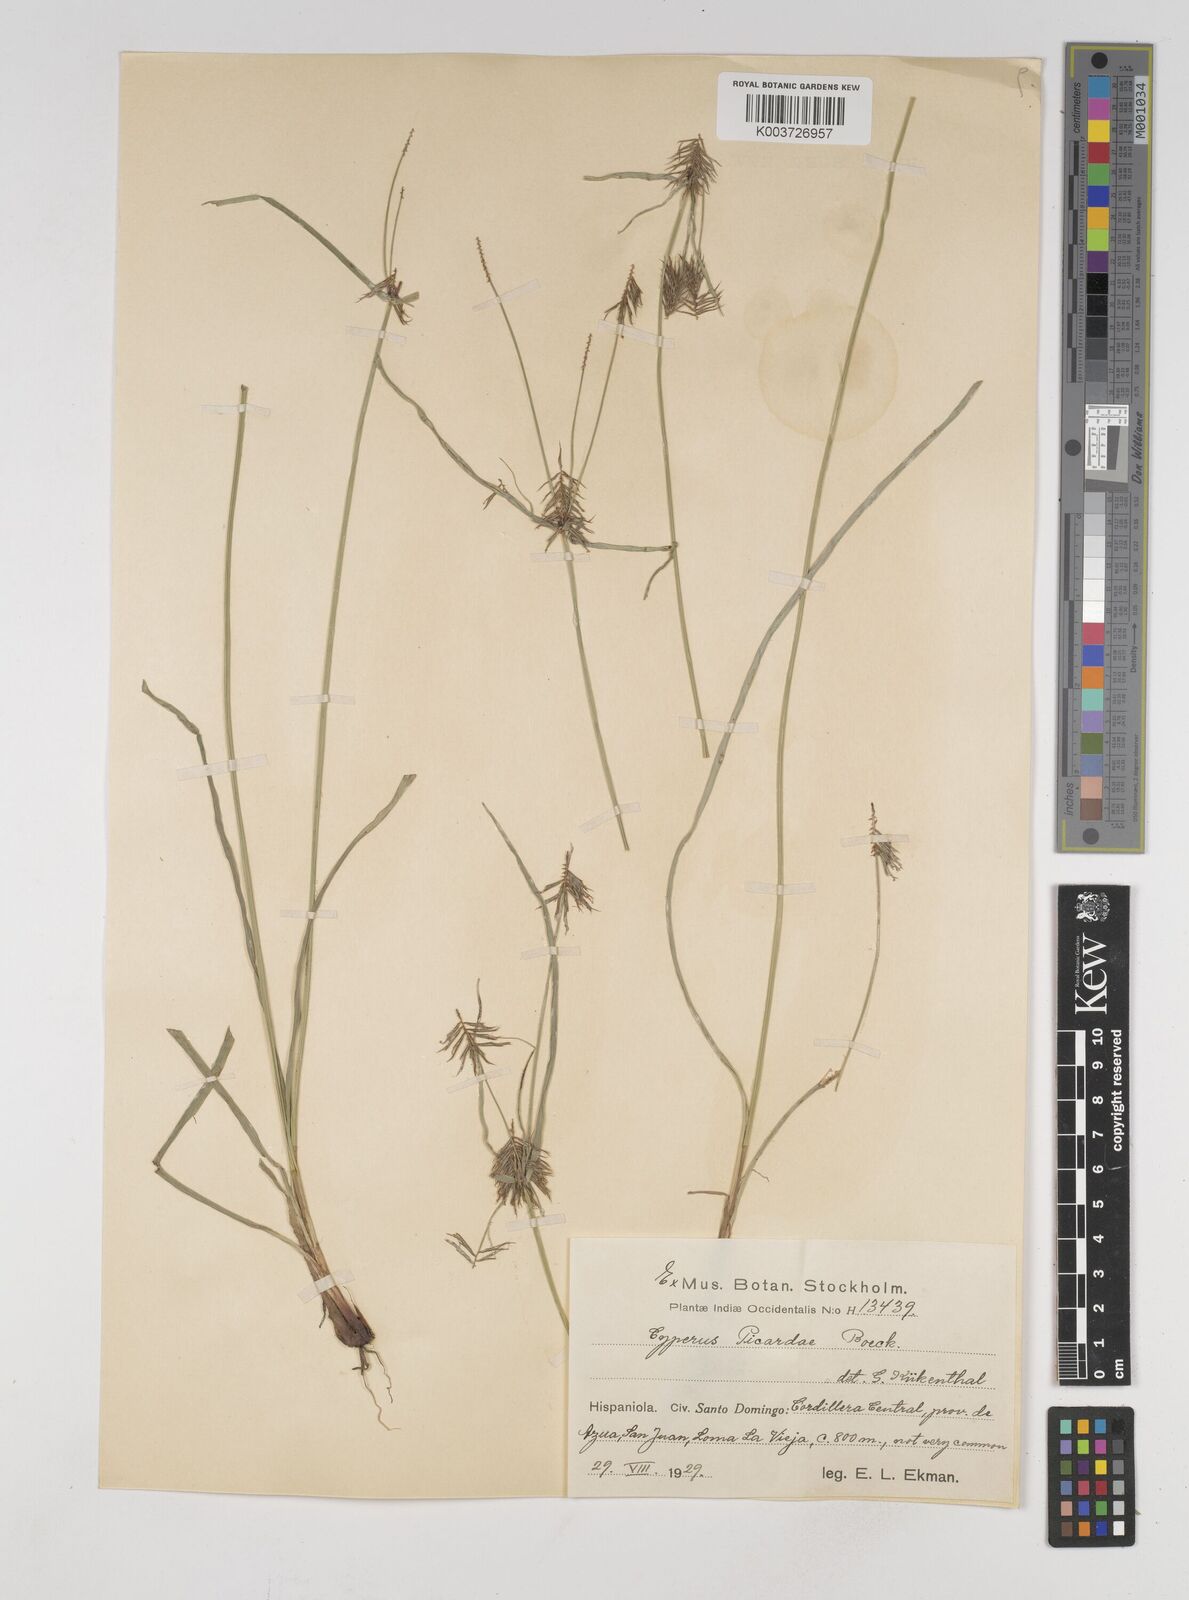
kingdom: Plantae
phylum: Tracheophyta
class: Liliopsida
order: Poales
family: Cyperaceae
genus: Cyperus
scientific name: Cyperus picardae
